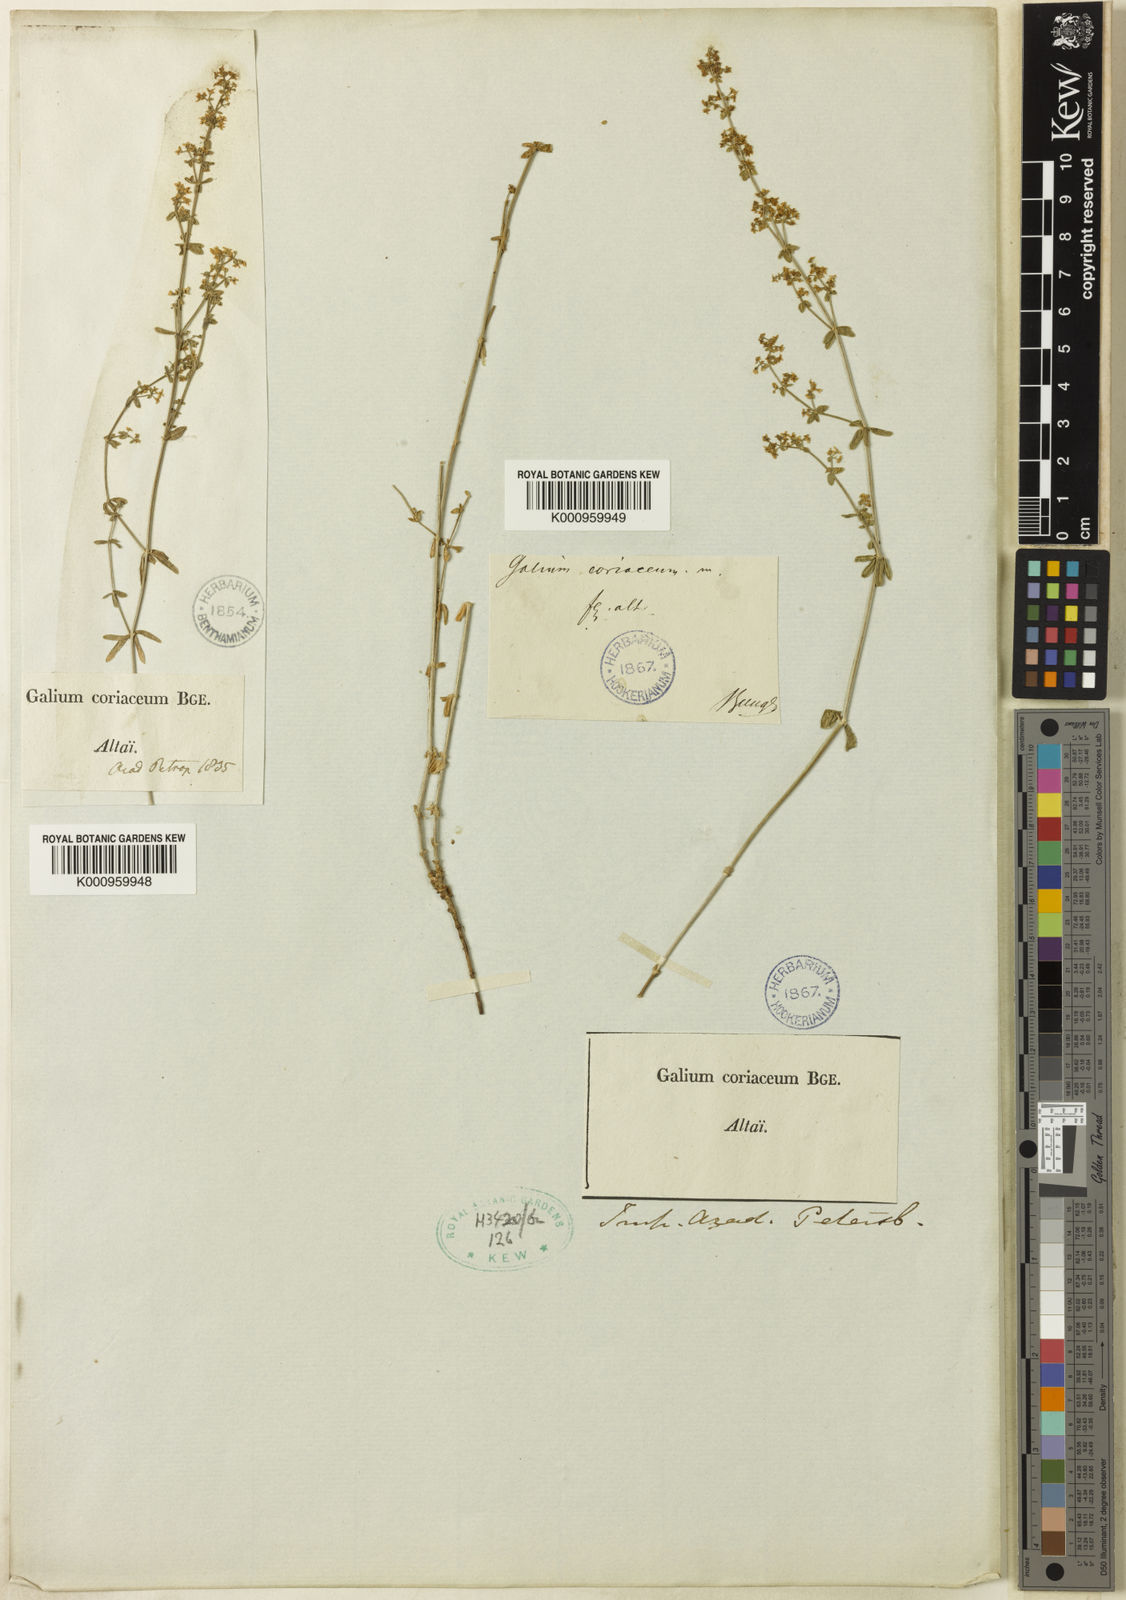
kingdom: Plantae
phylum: Tracheophyta
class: Magnoliopsida
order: Gentianales
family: Rubiaceae
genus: Galium
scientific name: Galium coriaceum
